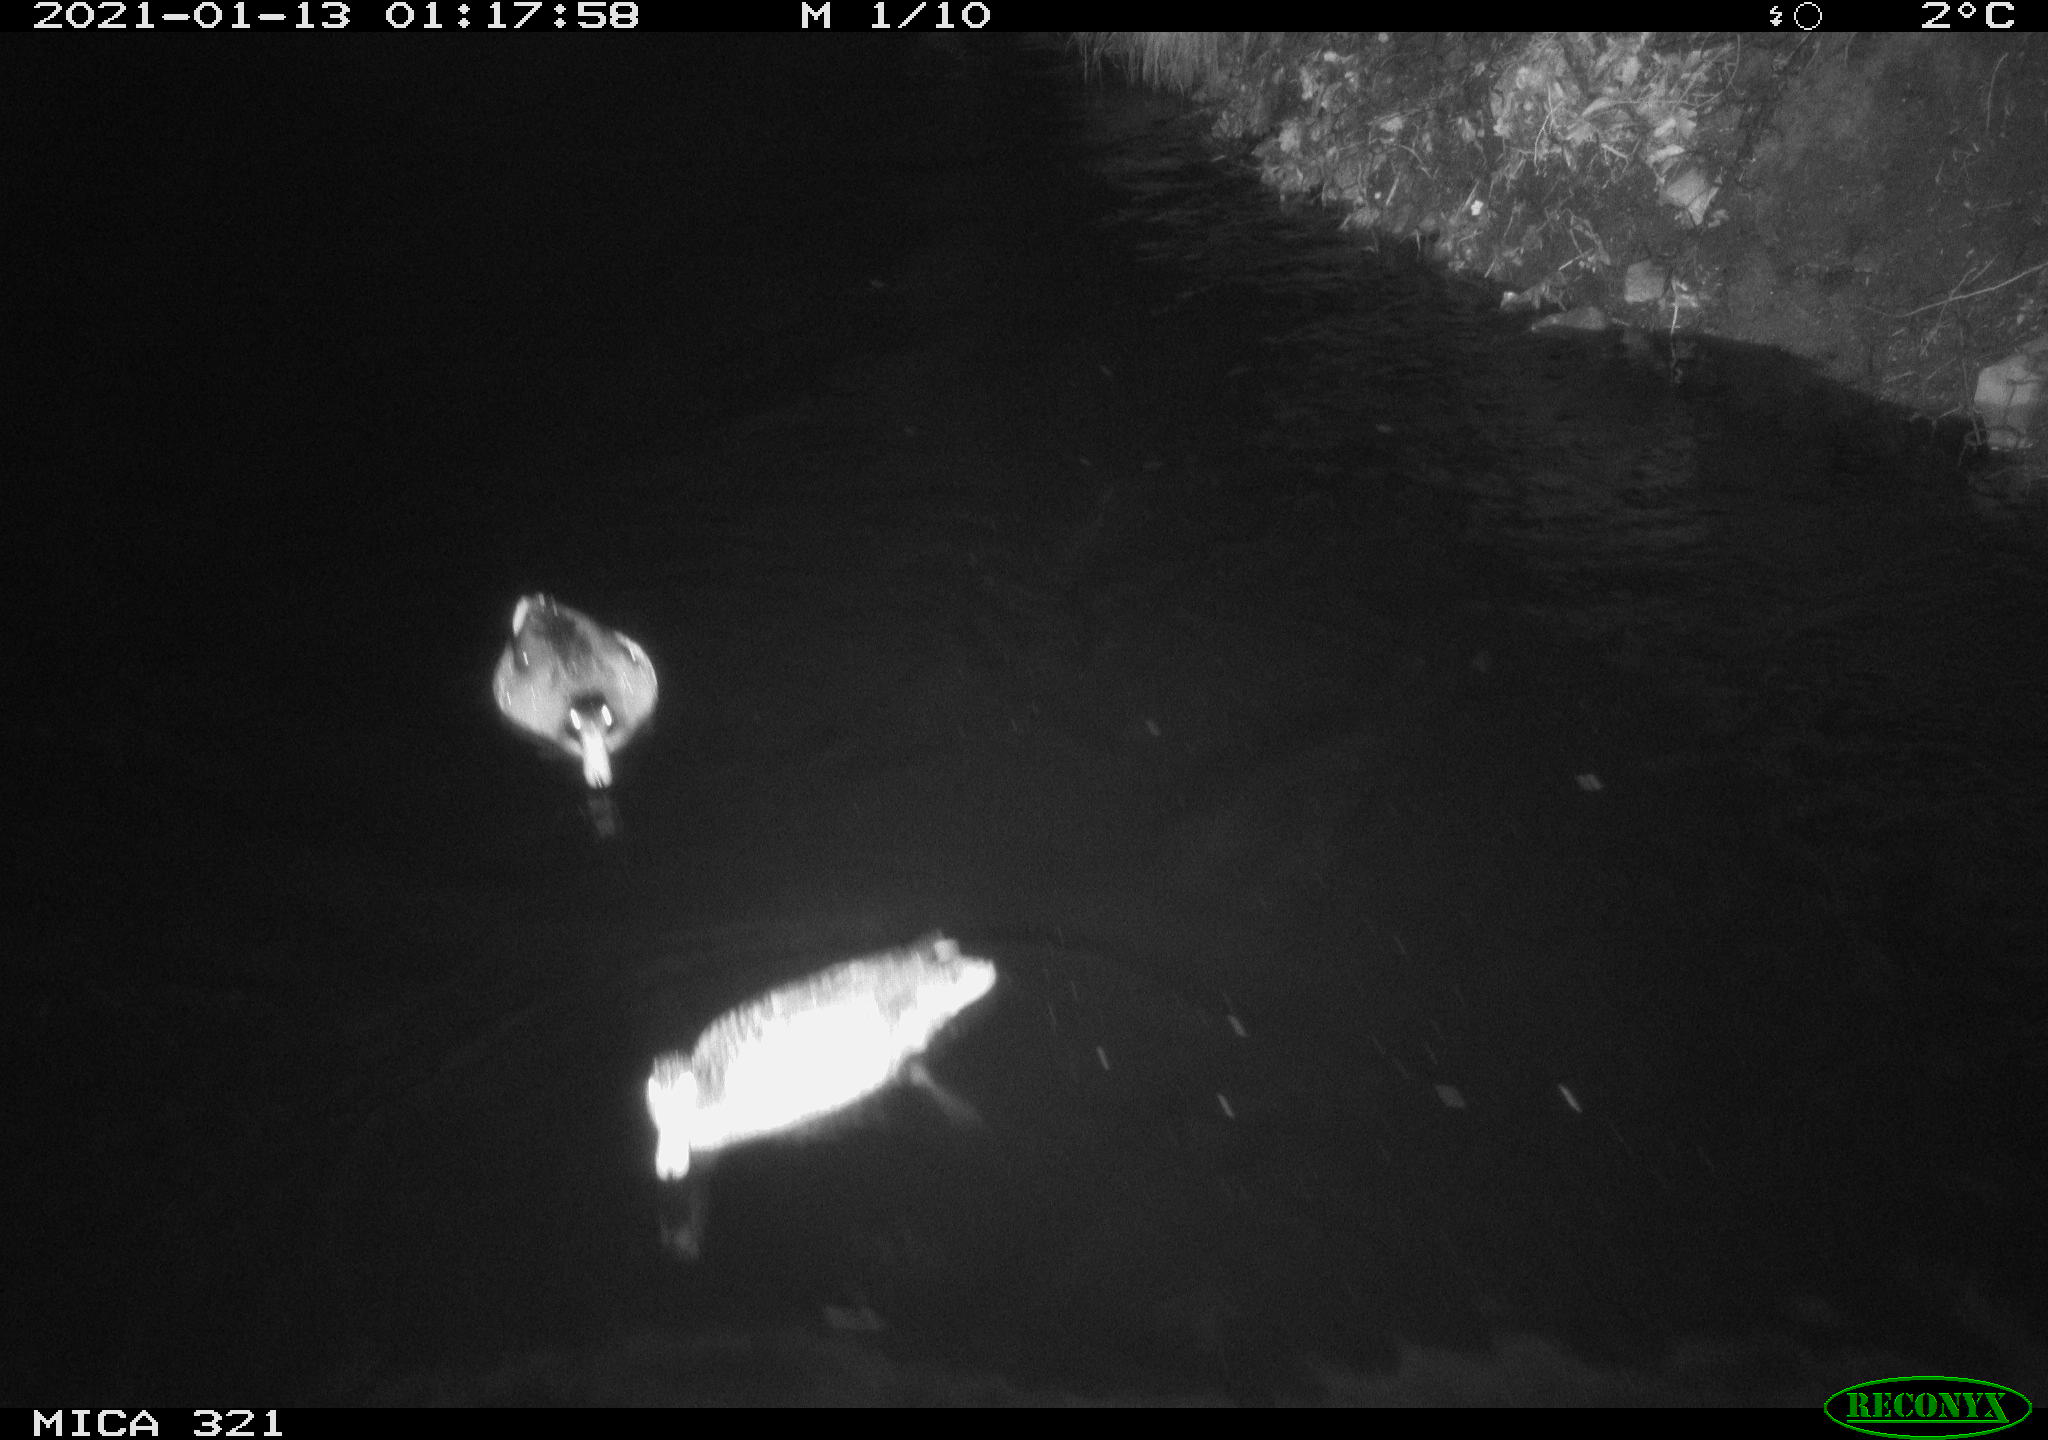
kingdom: Animalia
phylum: Chordata
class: Aves
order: Anseriformes
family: Anatidae
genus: Anas
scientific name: Anas platyrhynchos
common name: Mallard
